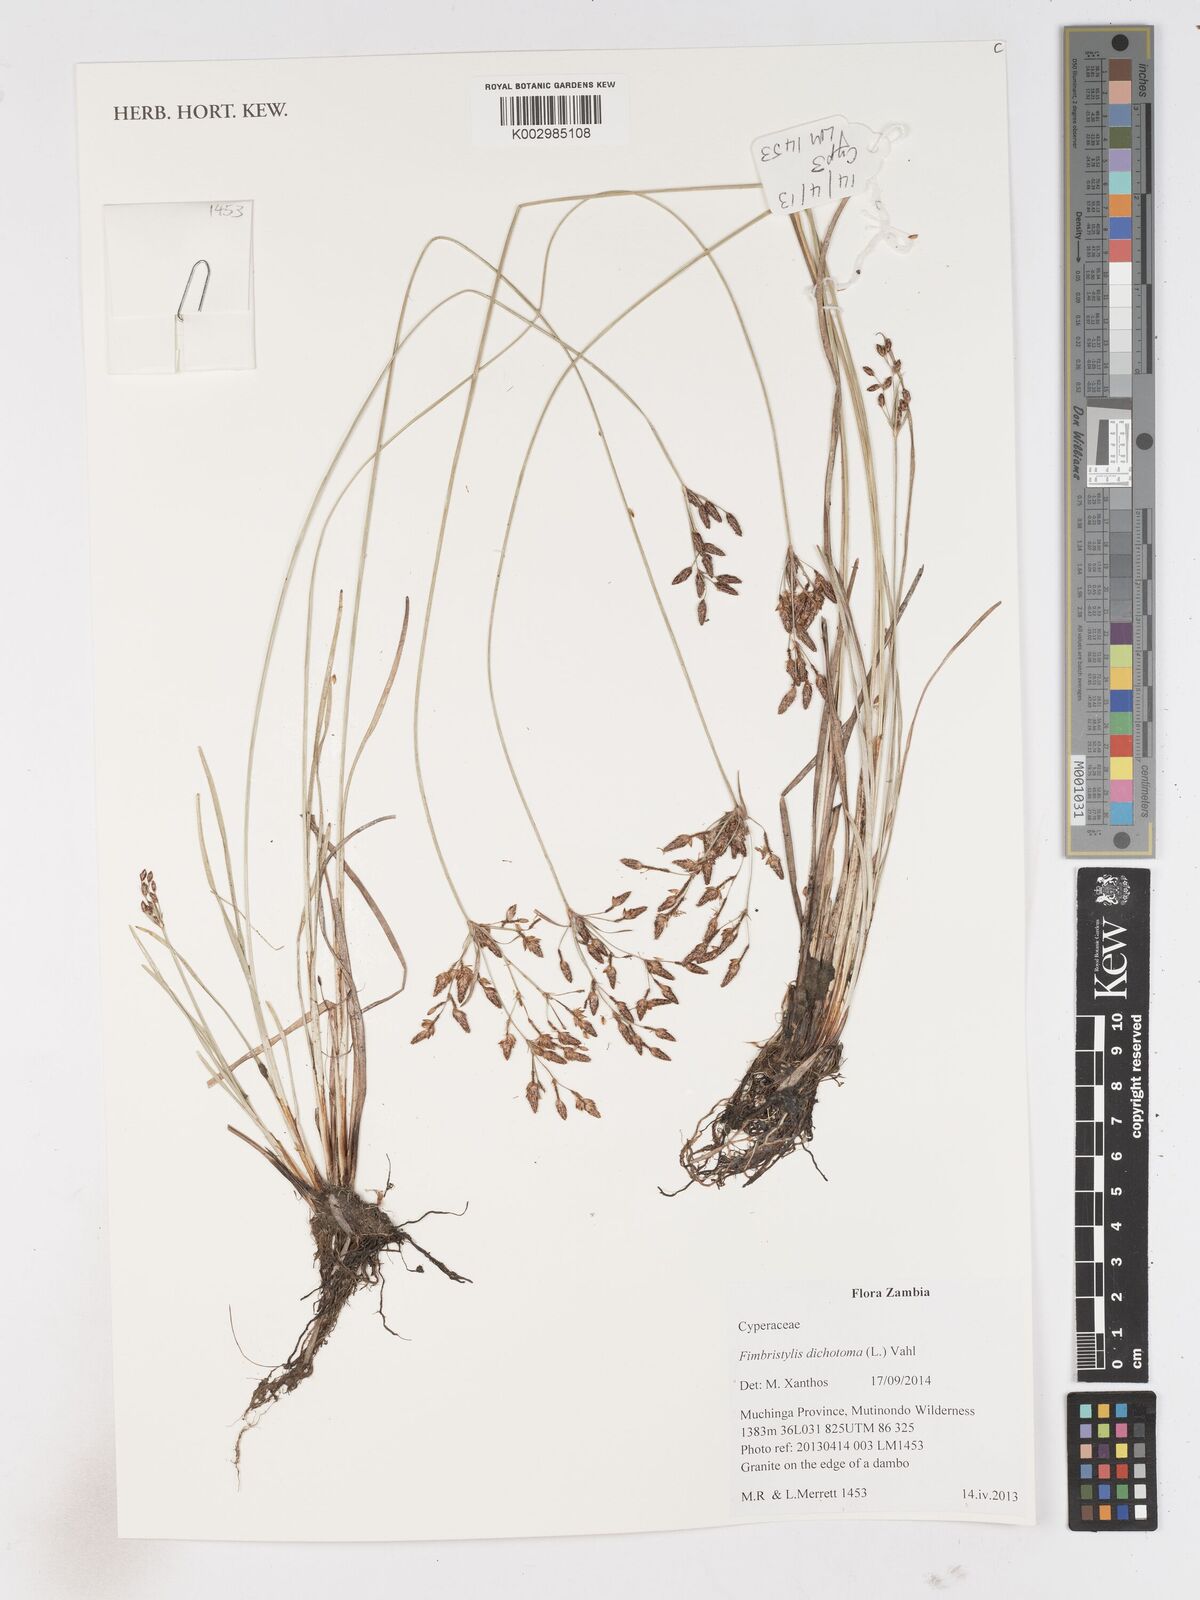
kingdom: Plantae
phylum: Tracheophyta
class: Liliopsida
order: Poales
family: Cyperaceae
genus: Fimbristylis
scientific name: Fimbristylis dichotoma
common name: Forked fimbry
